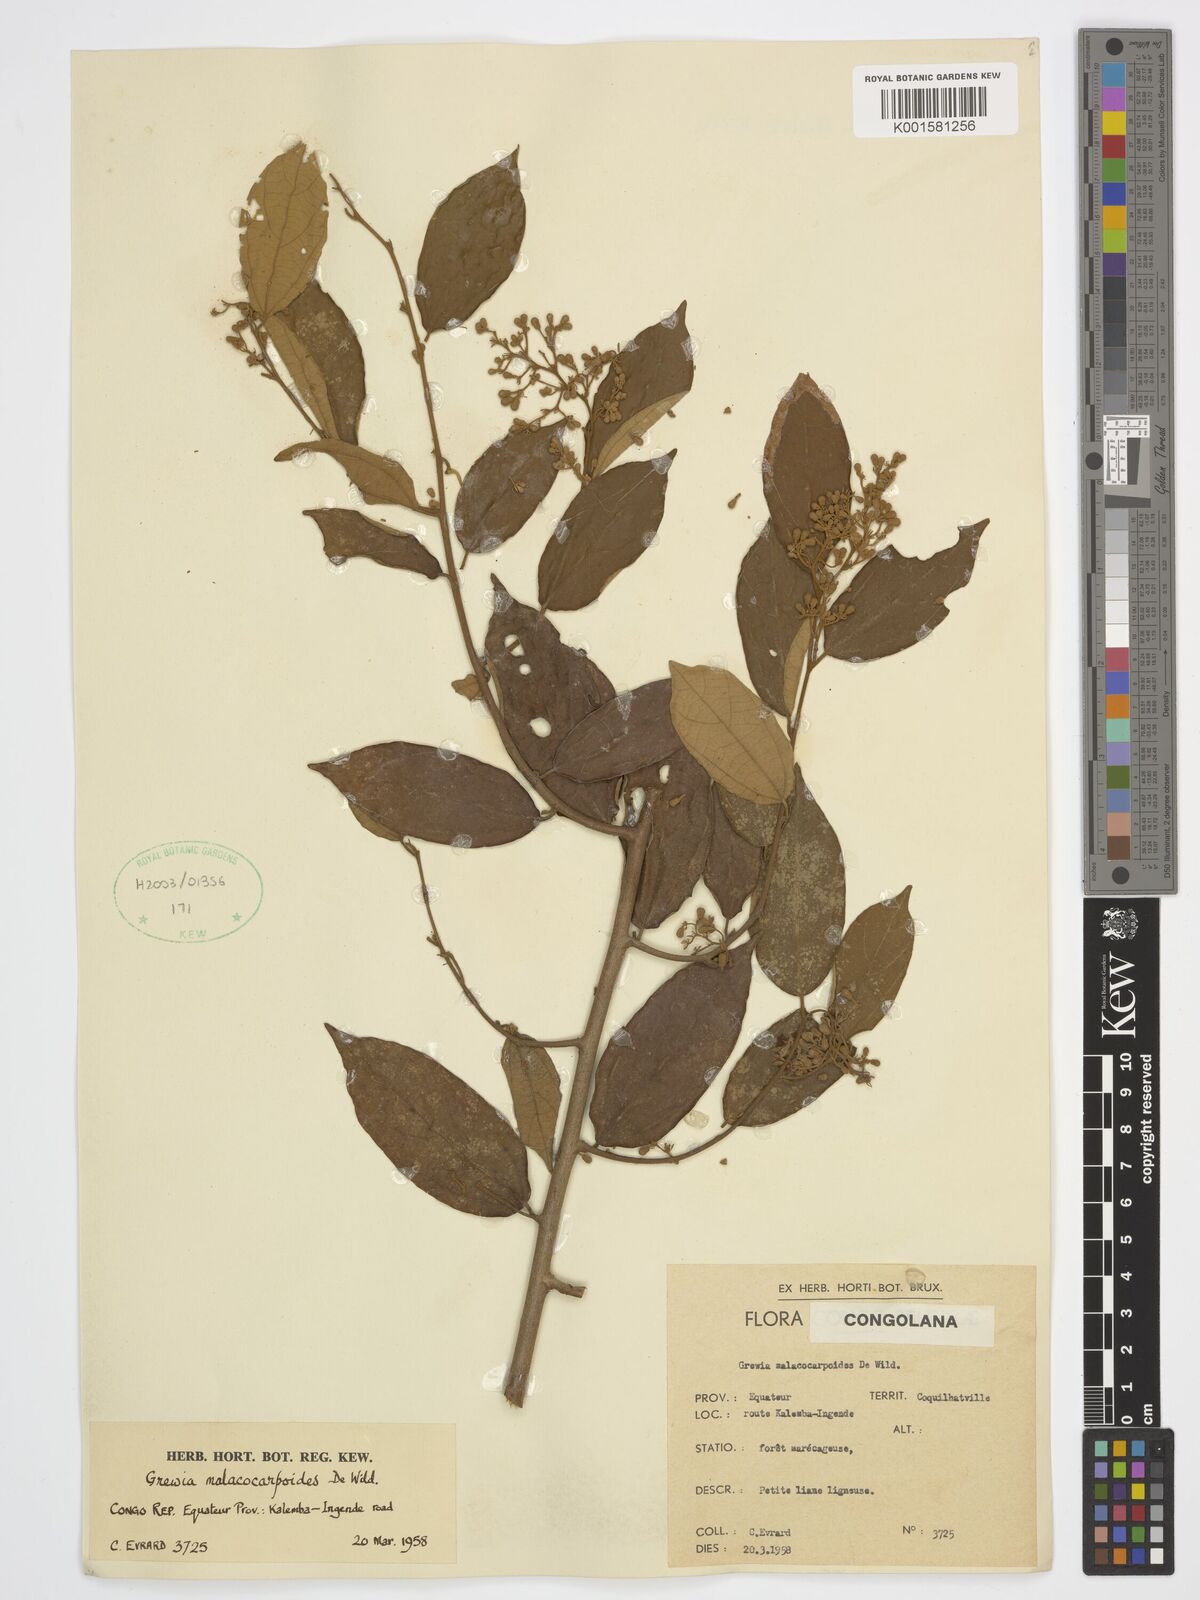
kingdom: Plantae
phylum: Tracheophyta
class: Magnoliopsida
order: Malvales
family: Malvaceae
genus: Microcos
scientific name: Microcos malacocarpa
